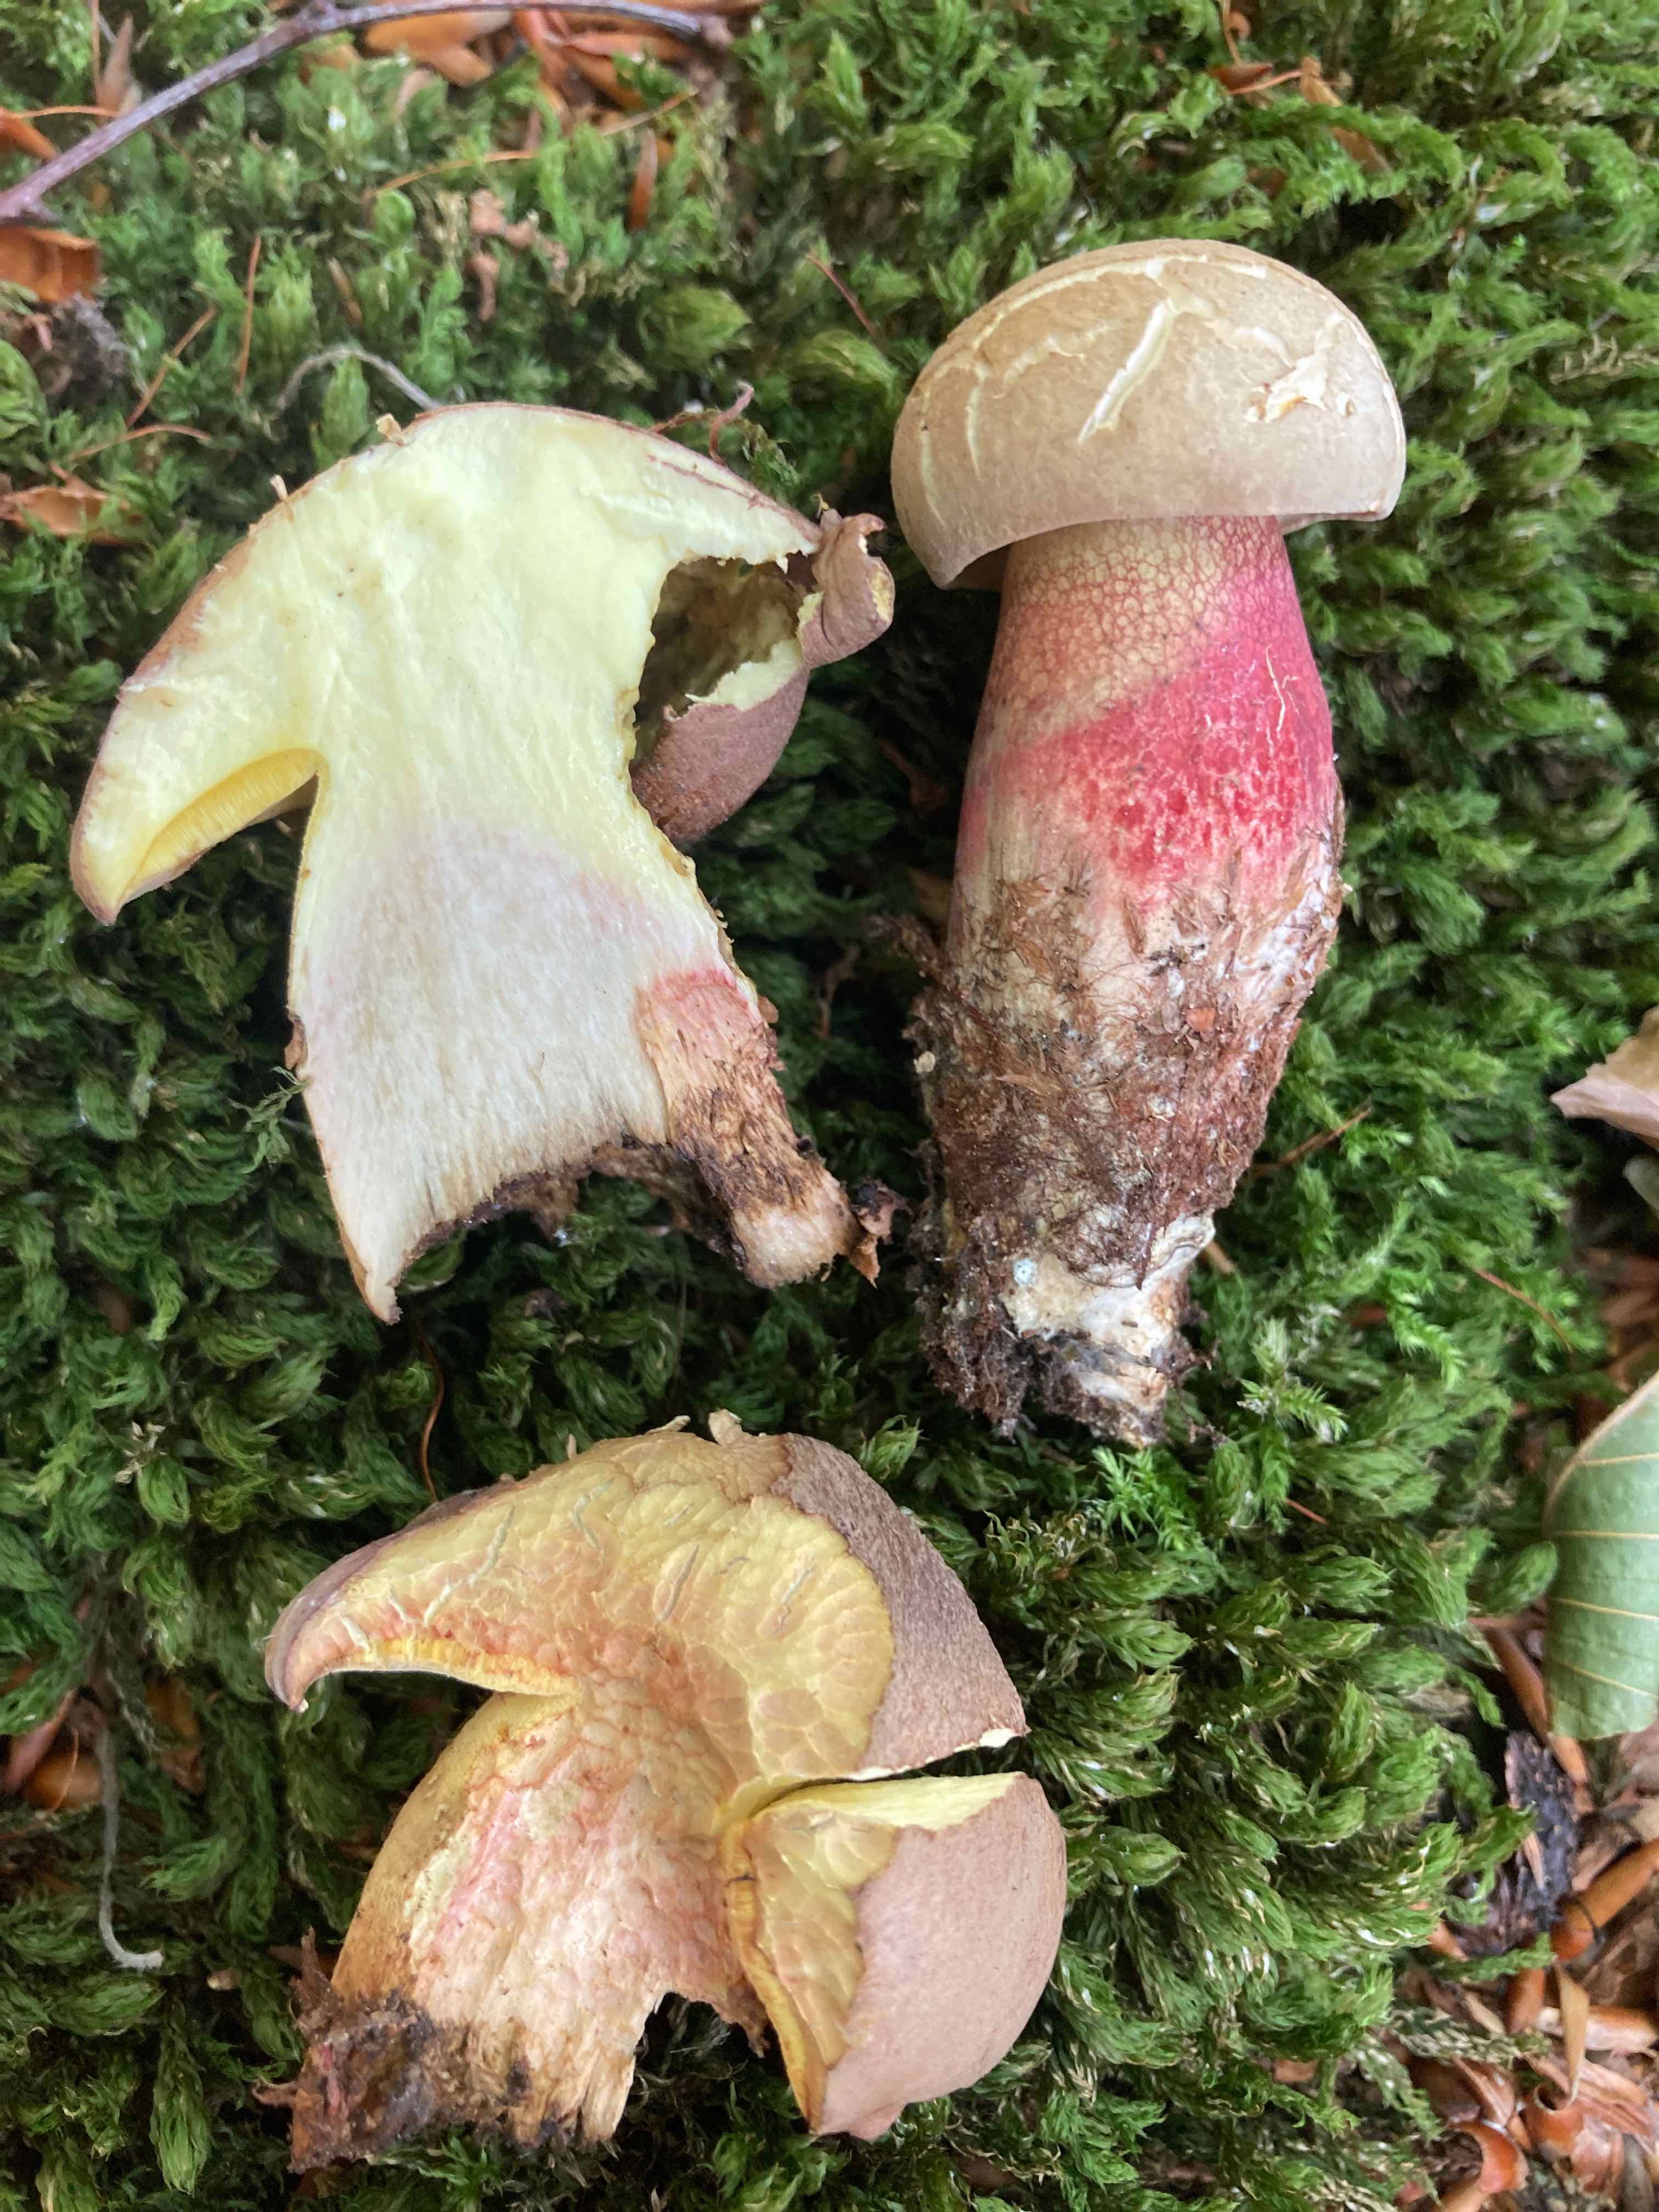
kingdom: Fungi
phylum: Basidiomycota
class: Agaricomycetes
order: Boletales
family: Boletaceae
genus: Caloboletus
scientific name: Caloboletus calopus
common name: skønfodet rørhat
